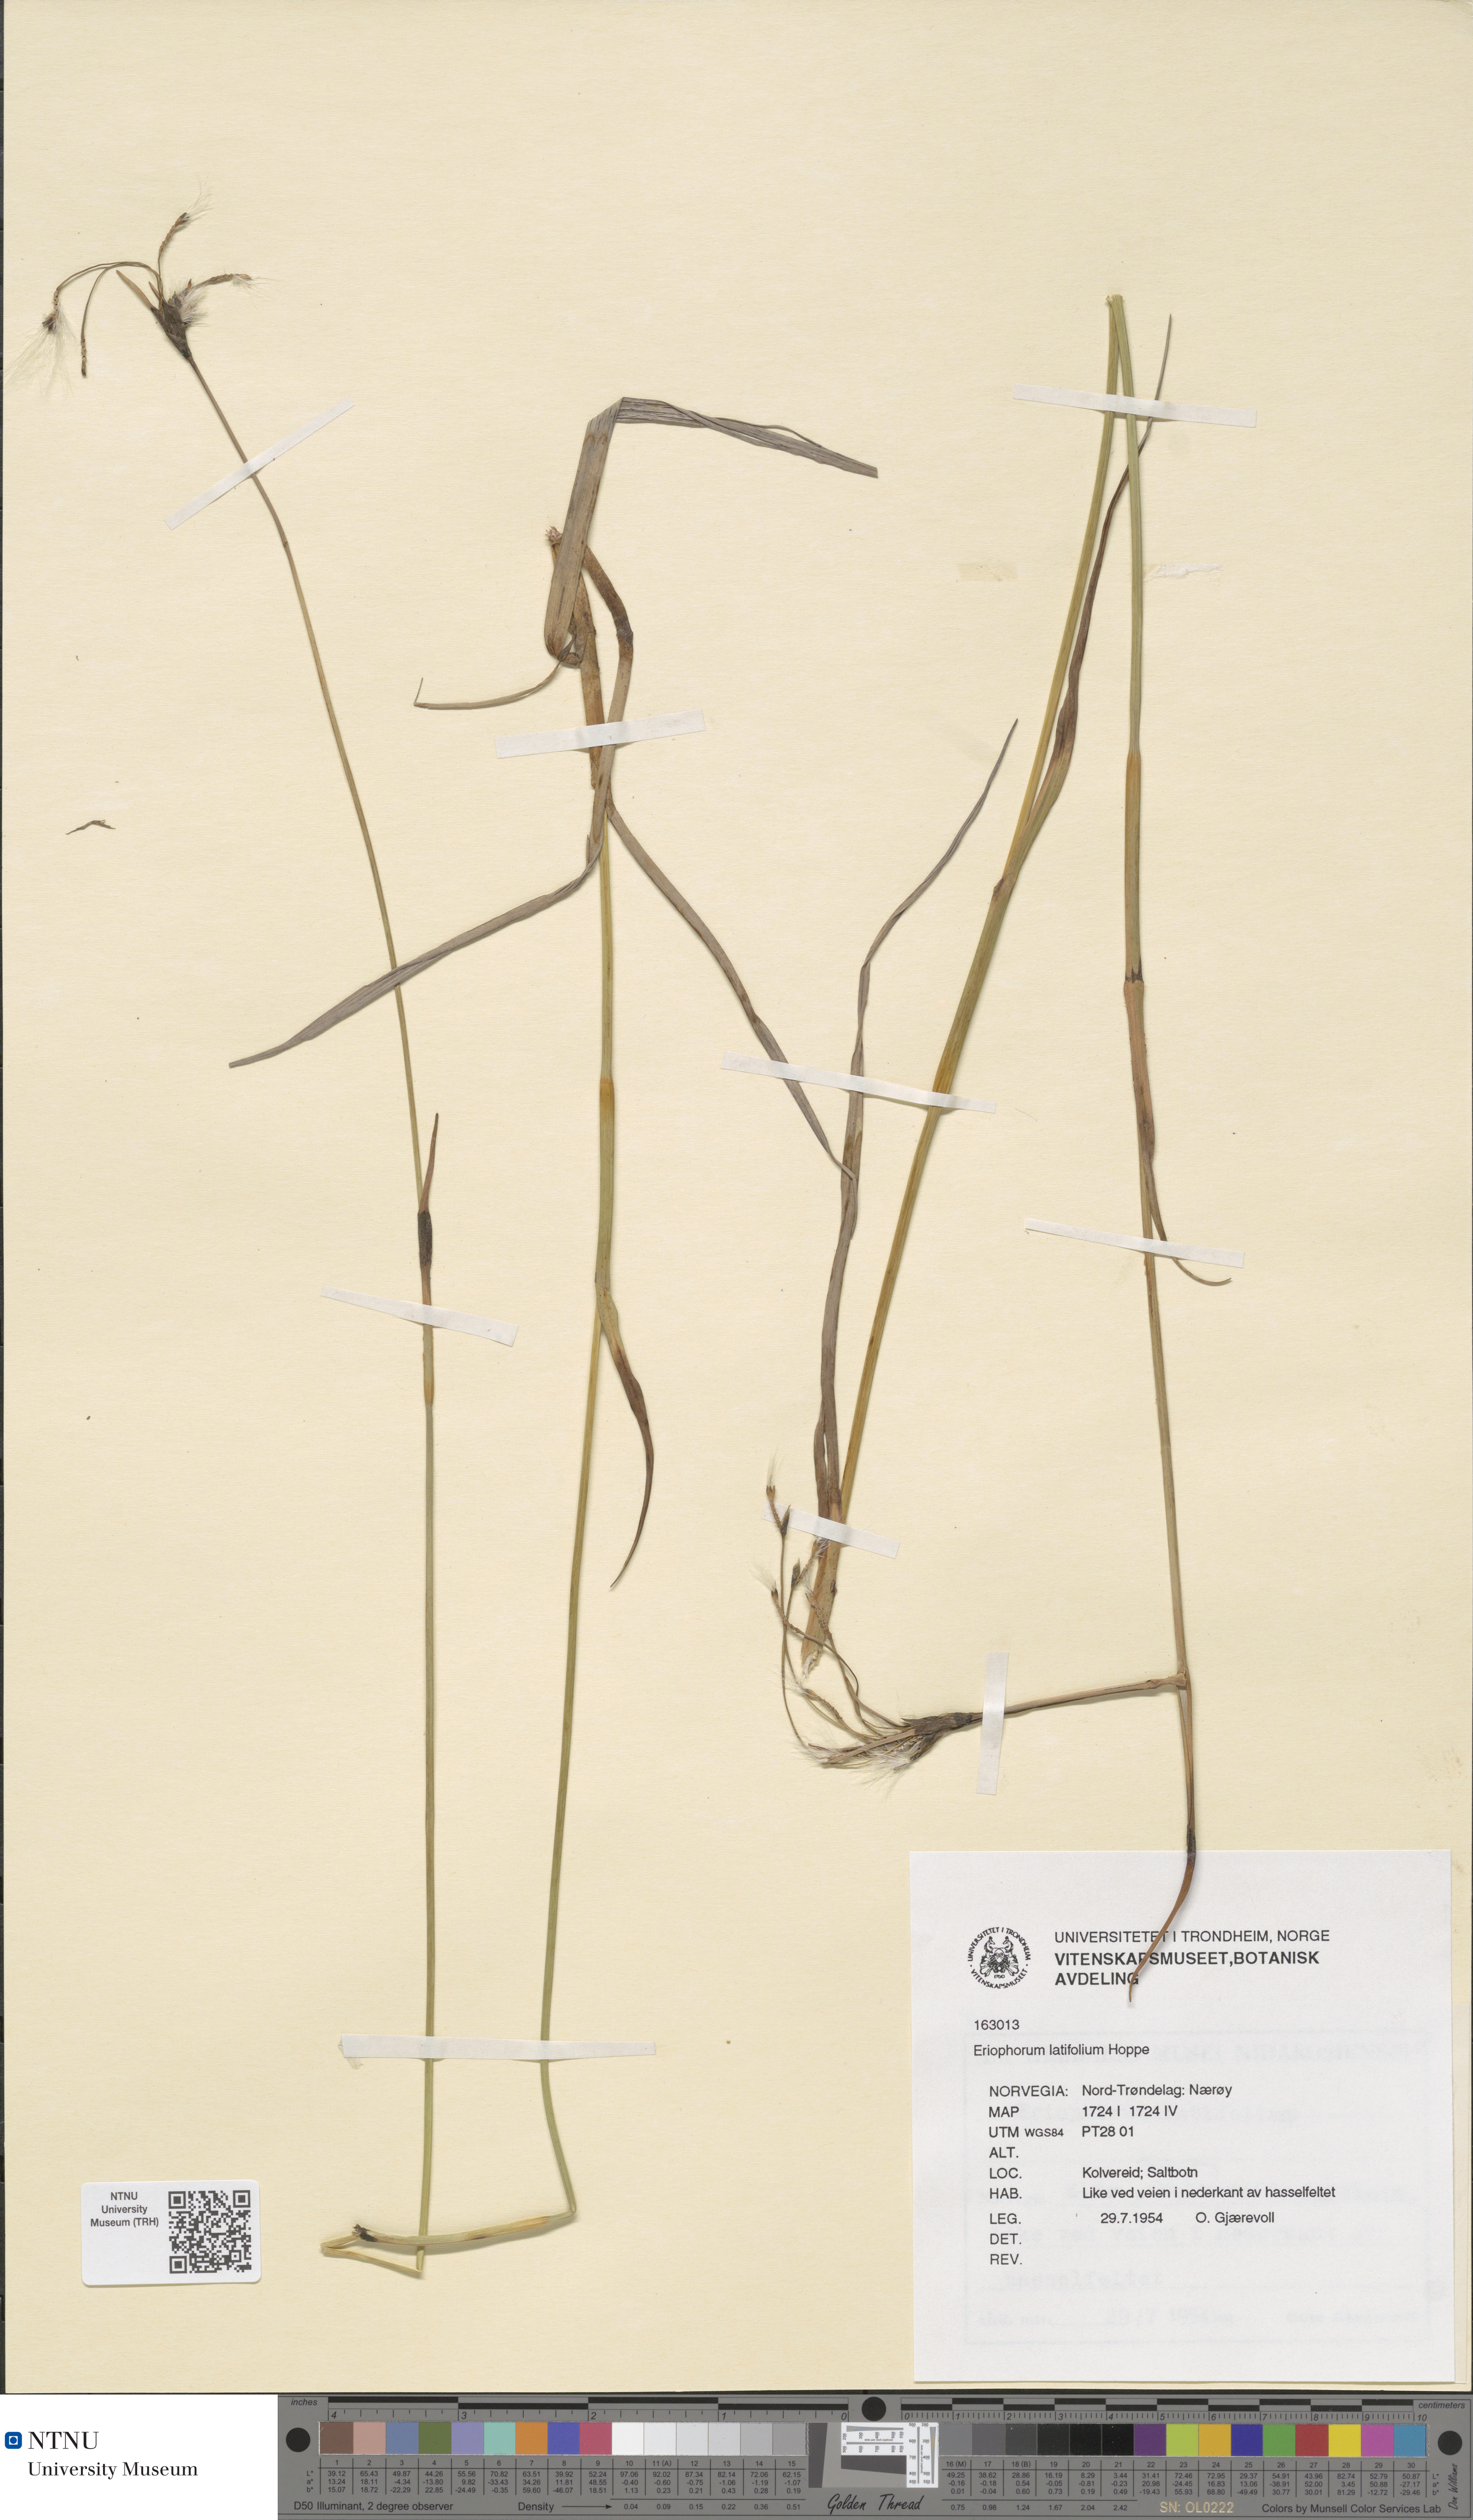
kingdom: Plantae
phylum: Tracheophyta
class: Liliopsida
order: Poales
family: Cyperaceae
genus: Eriophorum
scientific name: Eriophorum latifolium
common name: Broad-leaved cottongrass
